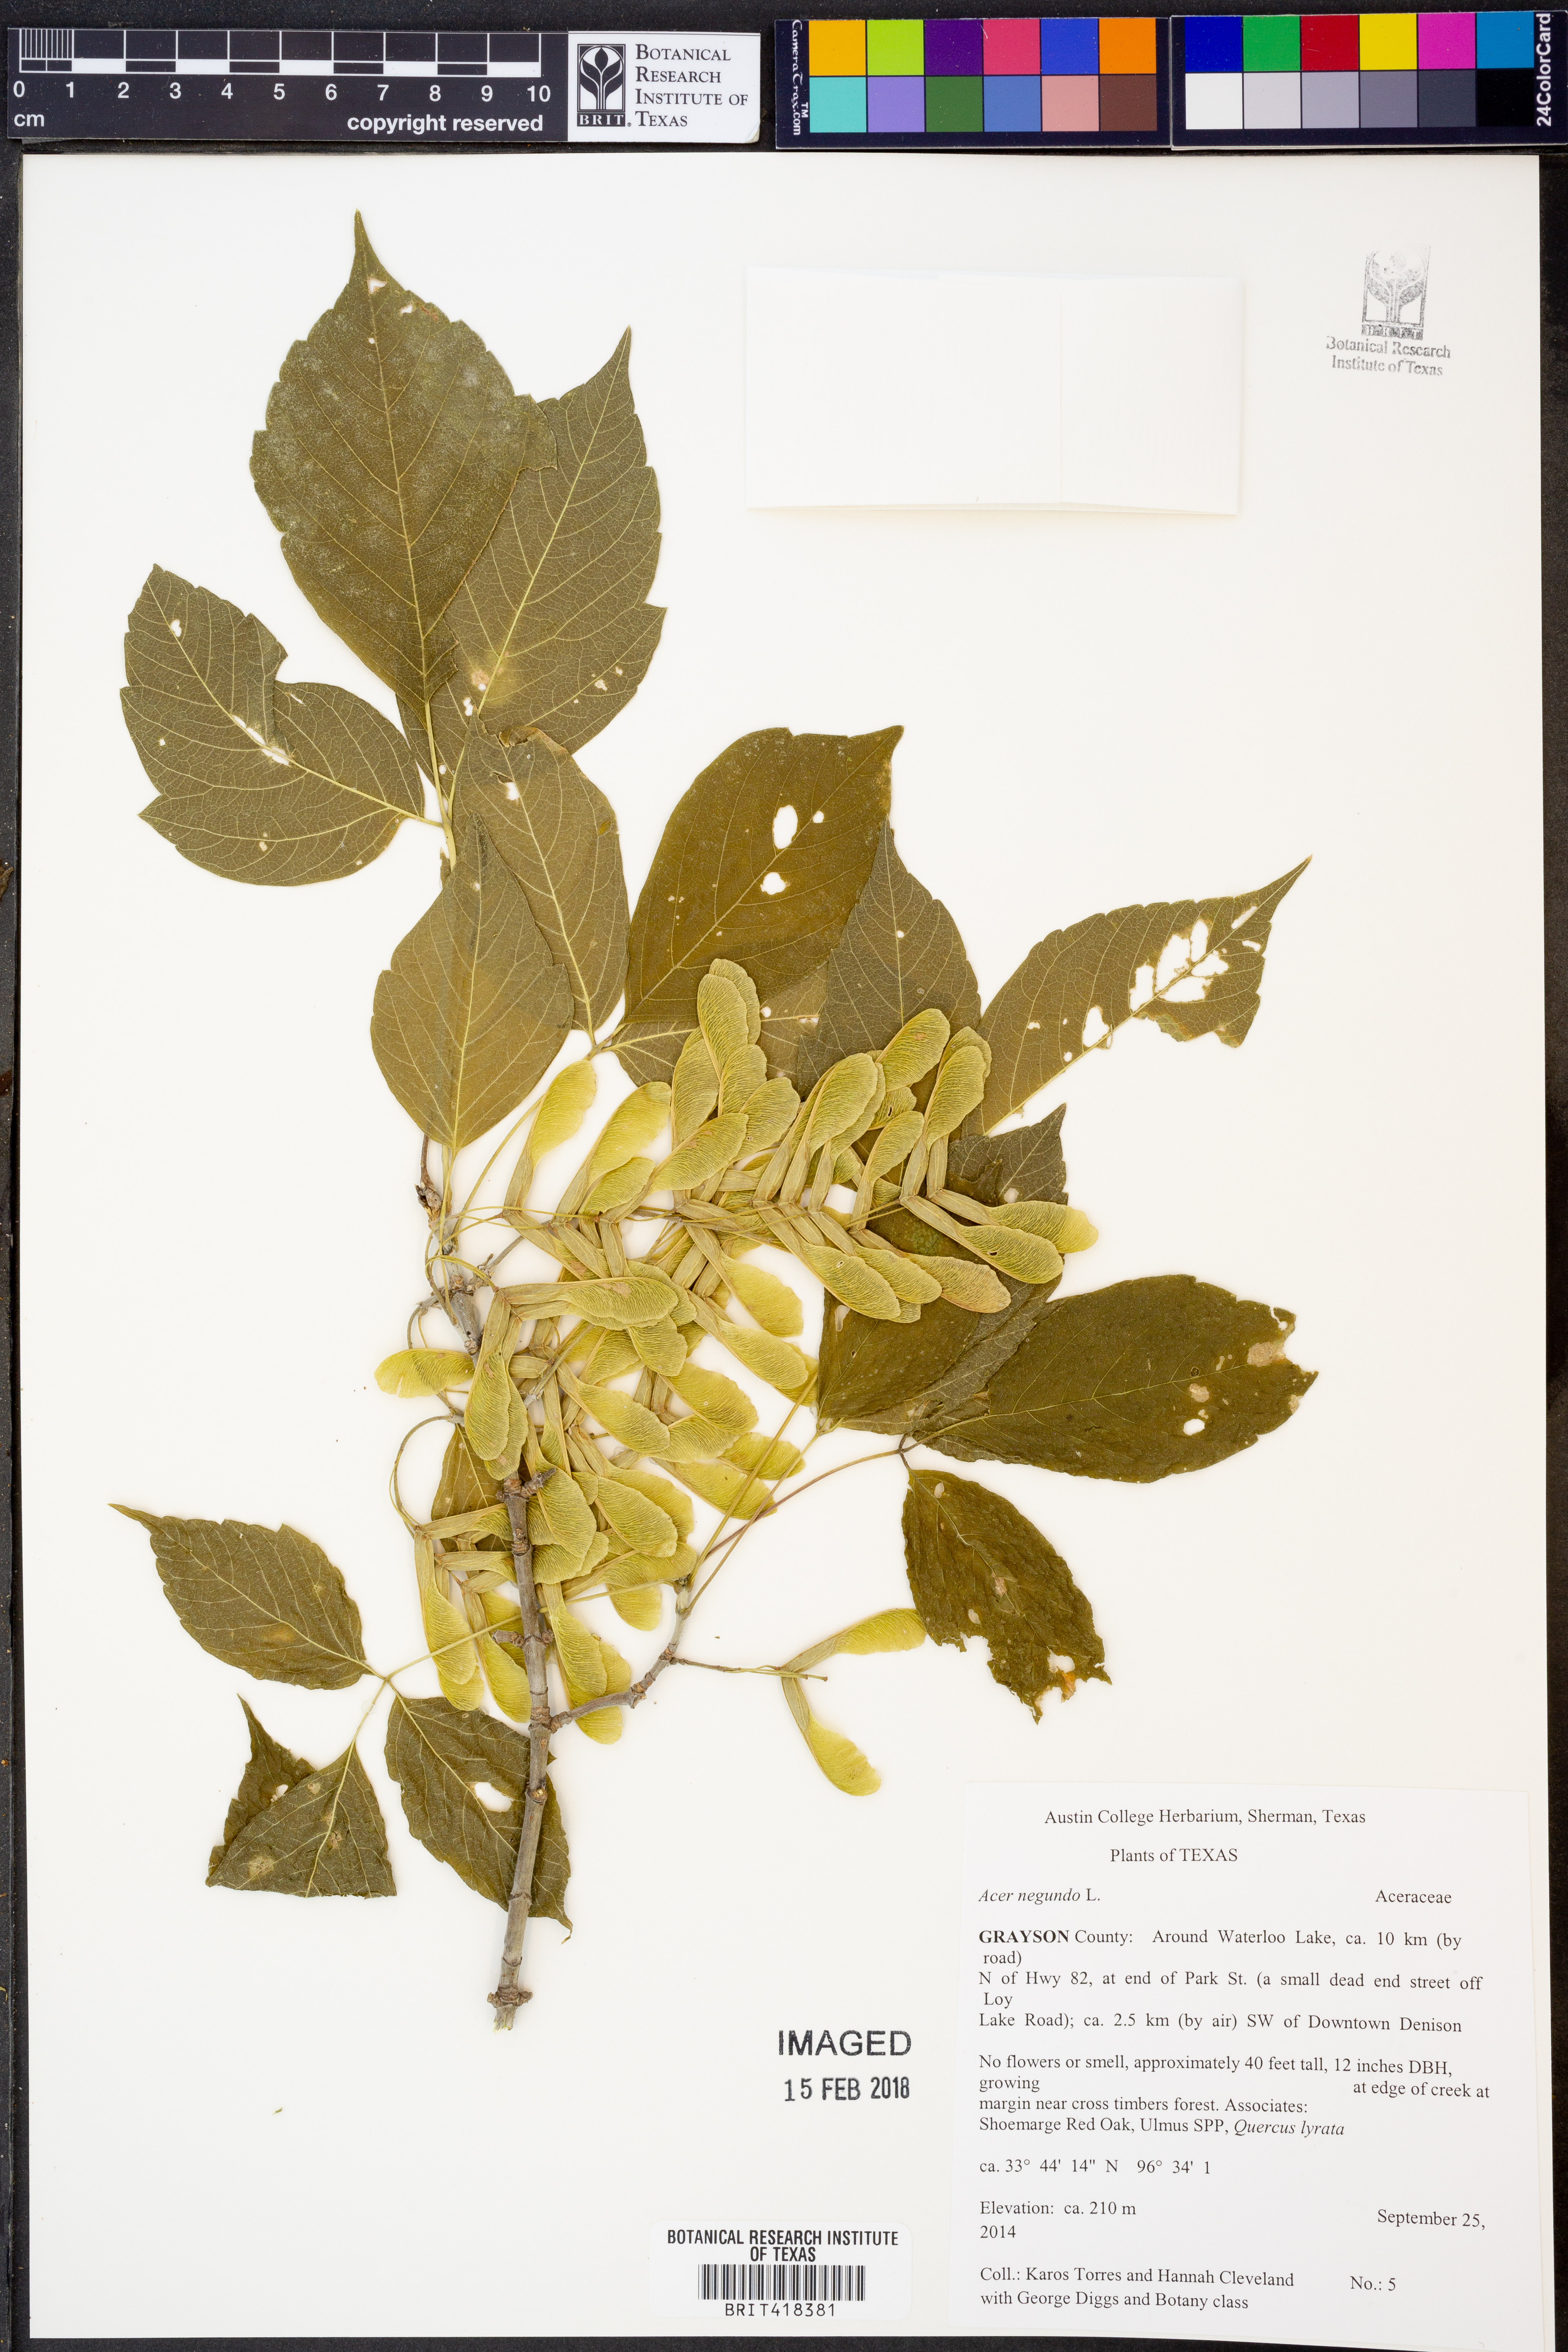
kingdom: Plantae
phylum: Tracheophyta
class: Magnoliopsida
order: Sapindales
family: Sapindaceae
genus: Acer
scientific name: Acer negundo
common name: Ashleaf maple
